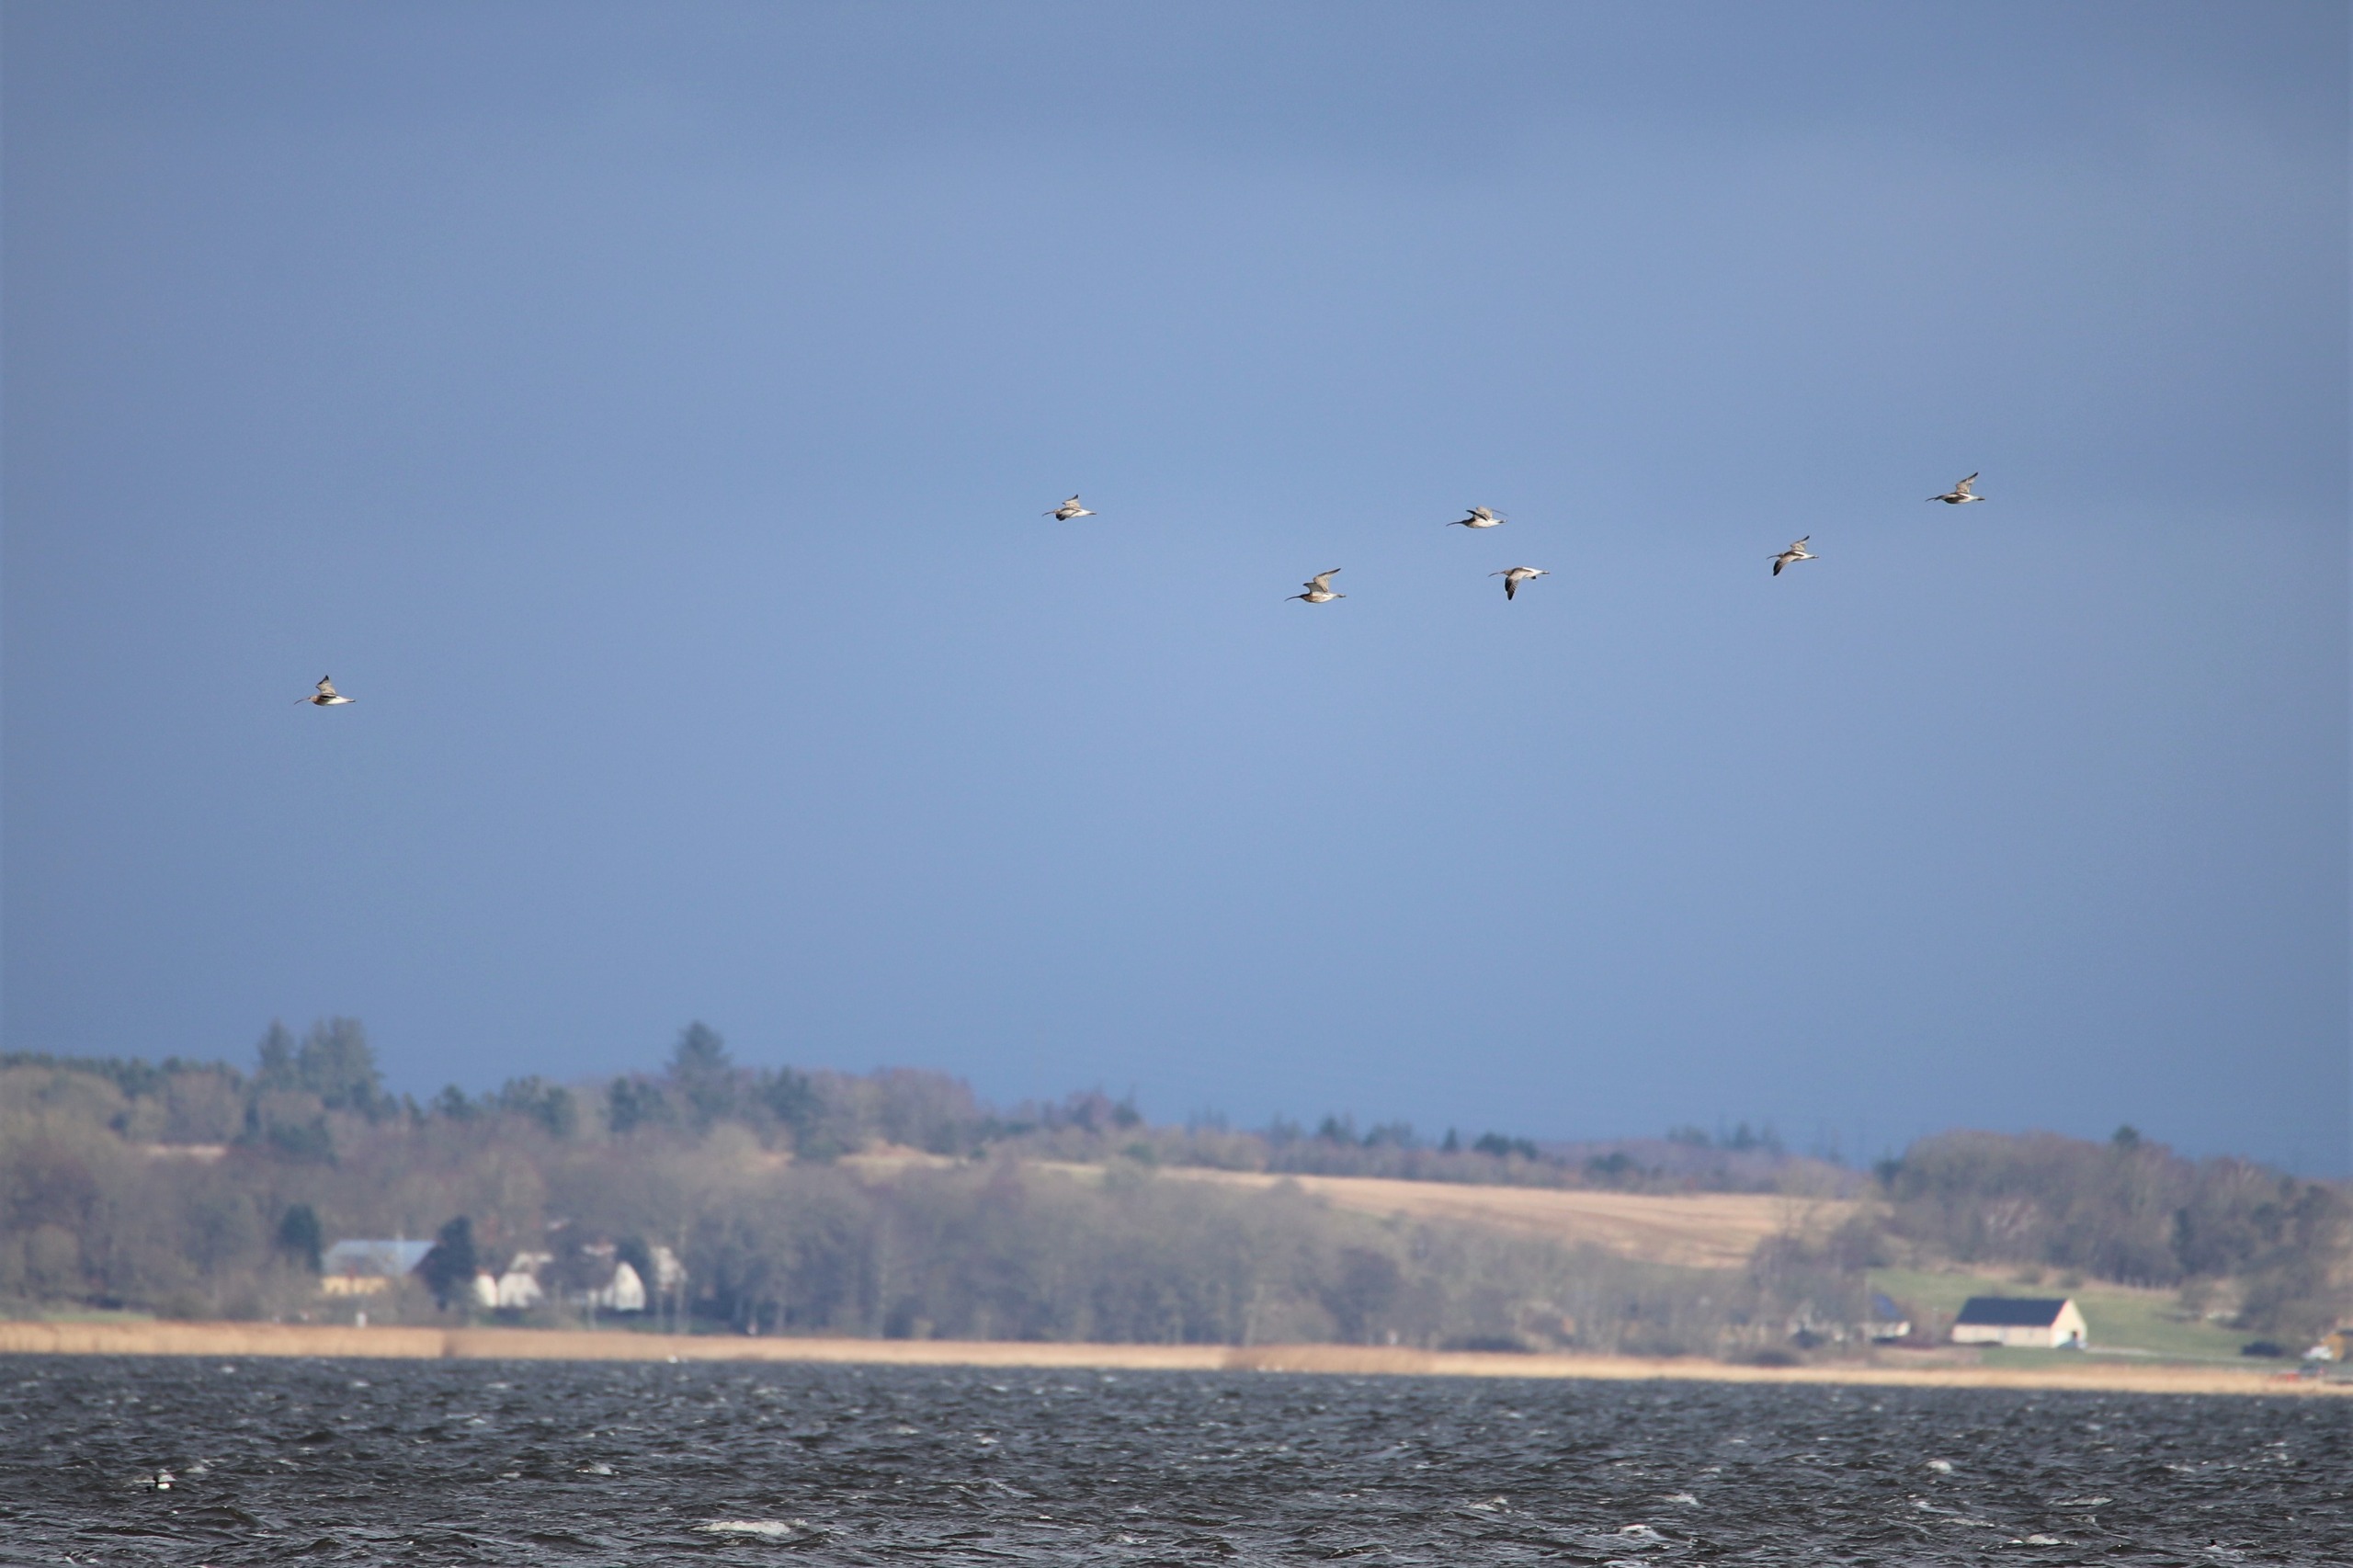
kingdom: Animalia
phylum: Chordata
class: Aves
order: Charadriiformes
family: Scolopacidae
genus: Numenius
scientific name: Numenius arquata
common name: Storspove
